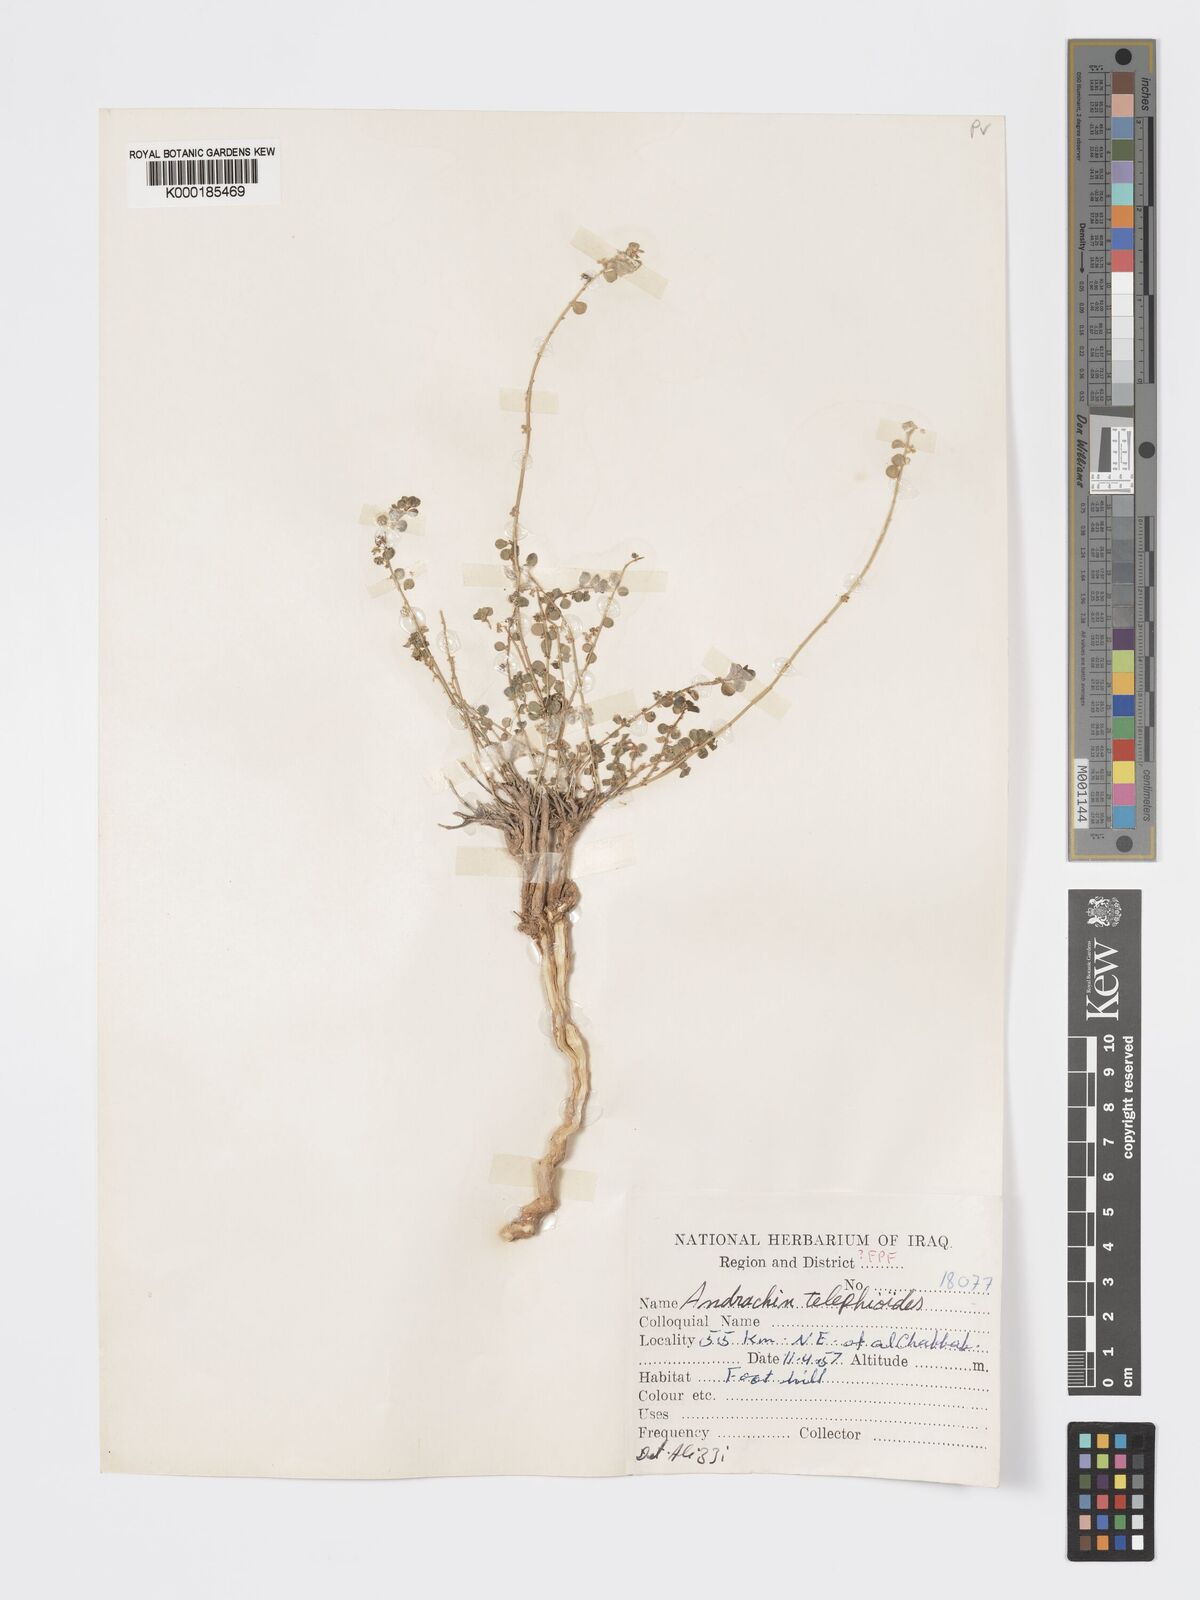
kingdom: Plantae
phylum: Tracheophyta
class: Magnoliopsida
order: Malpighiales
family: Phyllanthaceae
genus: Andrachne
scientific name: Andrachne telephioides
